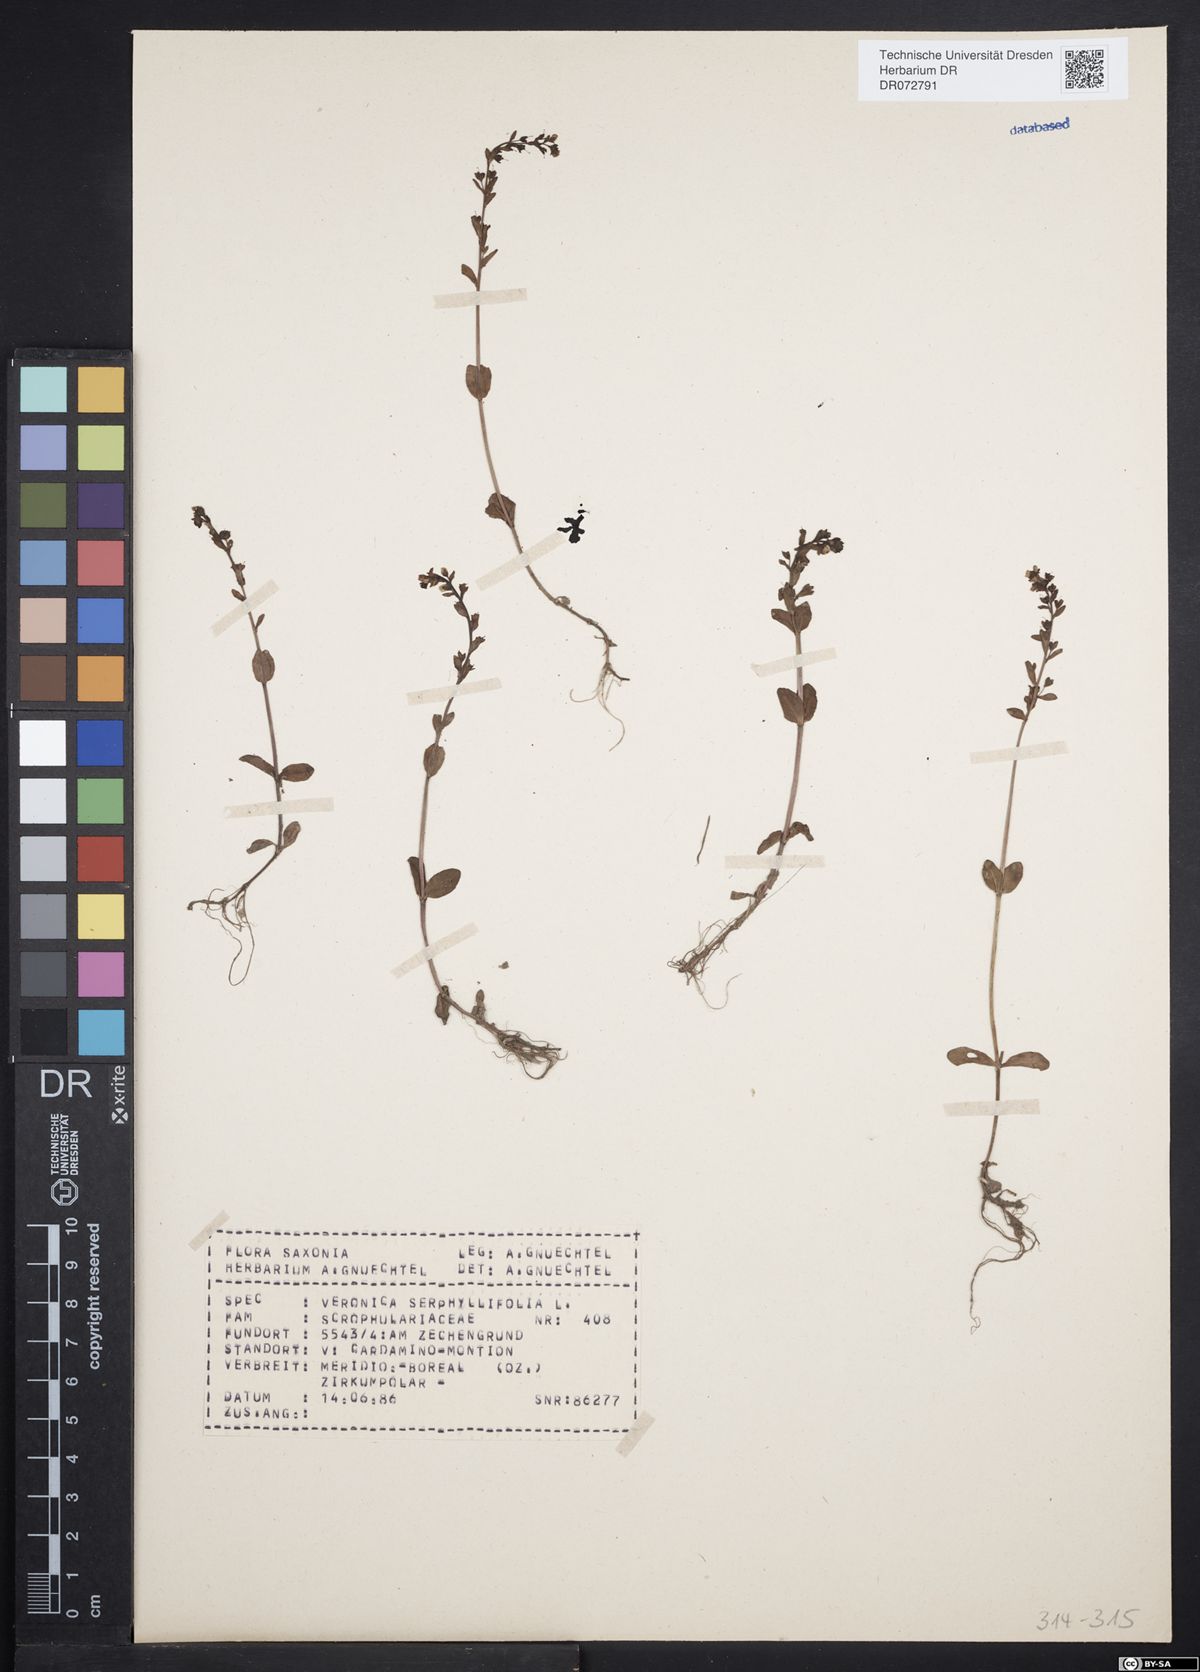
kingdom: Plantae
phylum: Tracheophyta
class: Magnoliopsida
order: Lamiales
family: Plantaginaceae
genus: Veronica
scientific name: Veronica serpyllifolia
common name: Thyme-leaved speedwell
